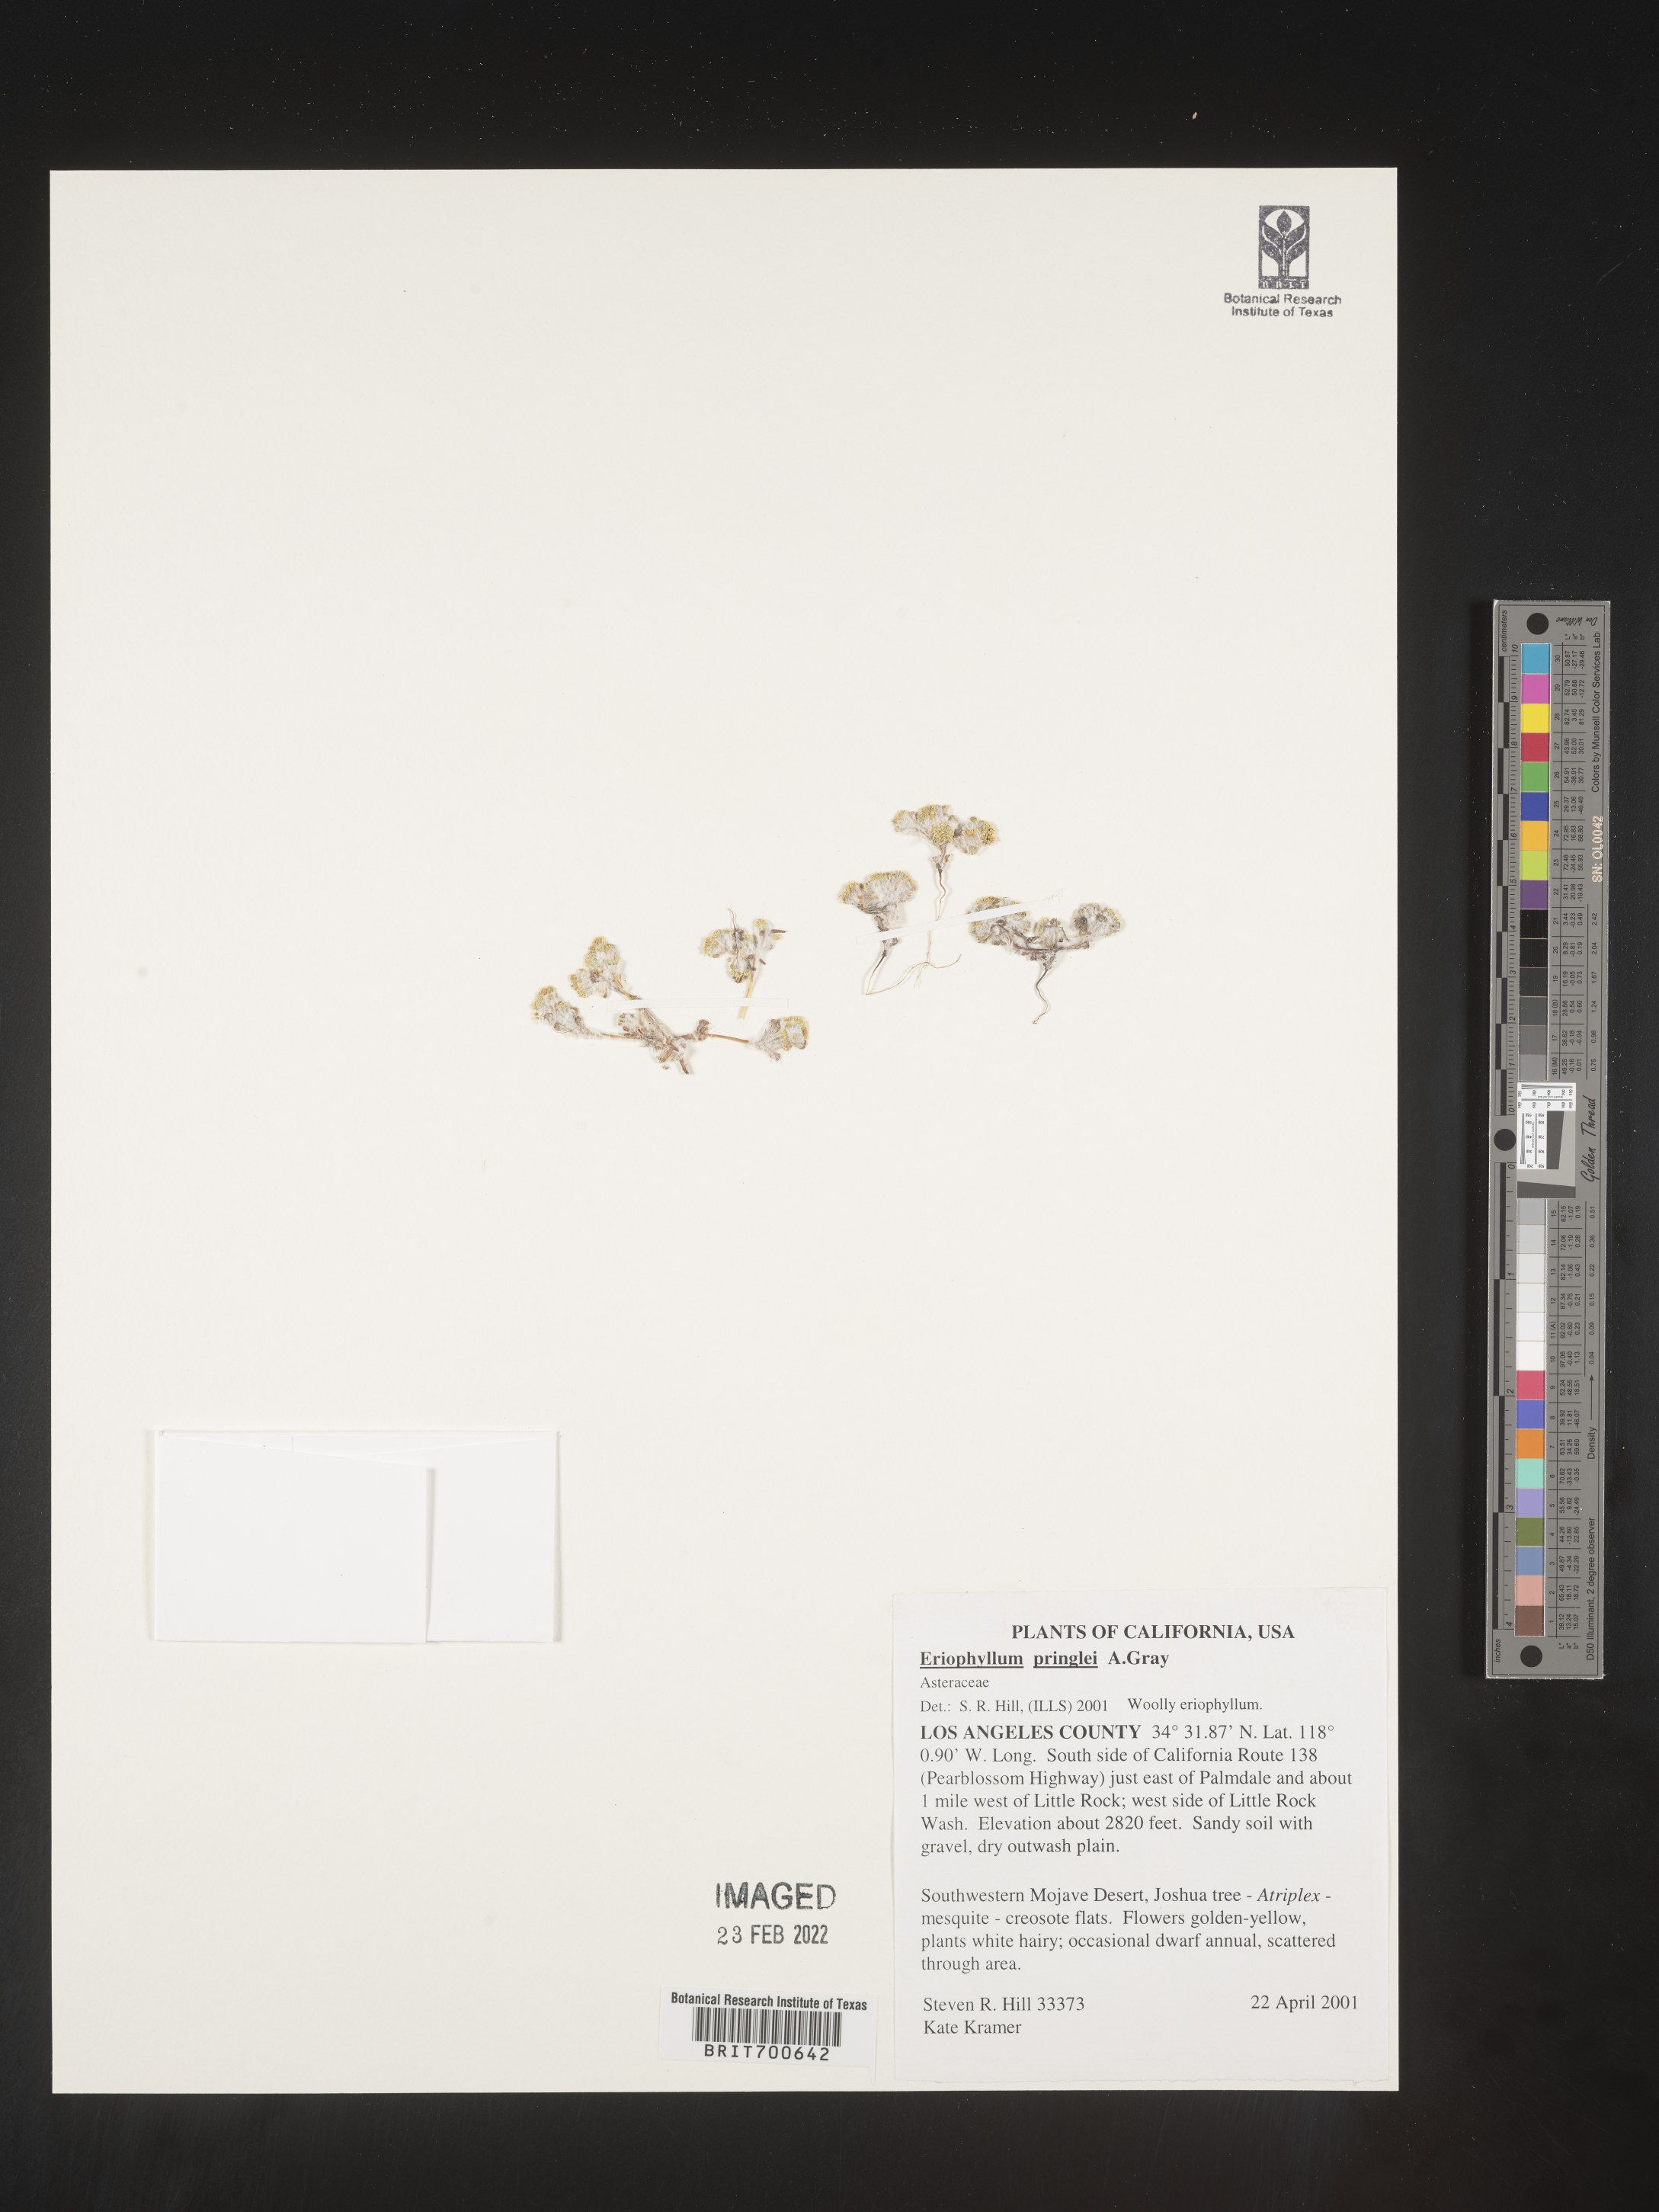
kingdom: Plantae
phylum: Tracheophyta
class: Magnoliopsida
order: Asterales
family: Asteraceae
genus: Eriophyllum
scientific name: Eriophyllum pringlei
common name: Pringle's woolly-sunflower
